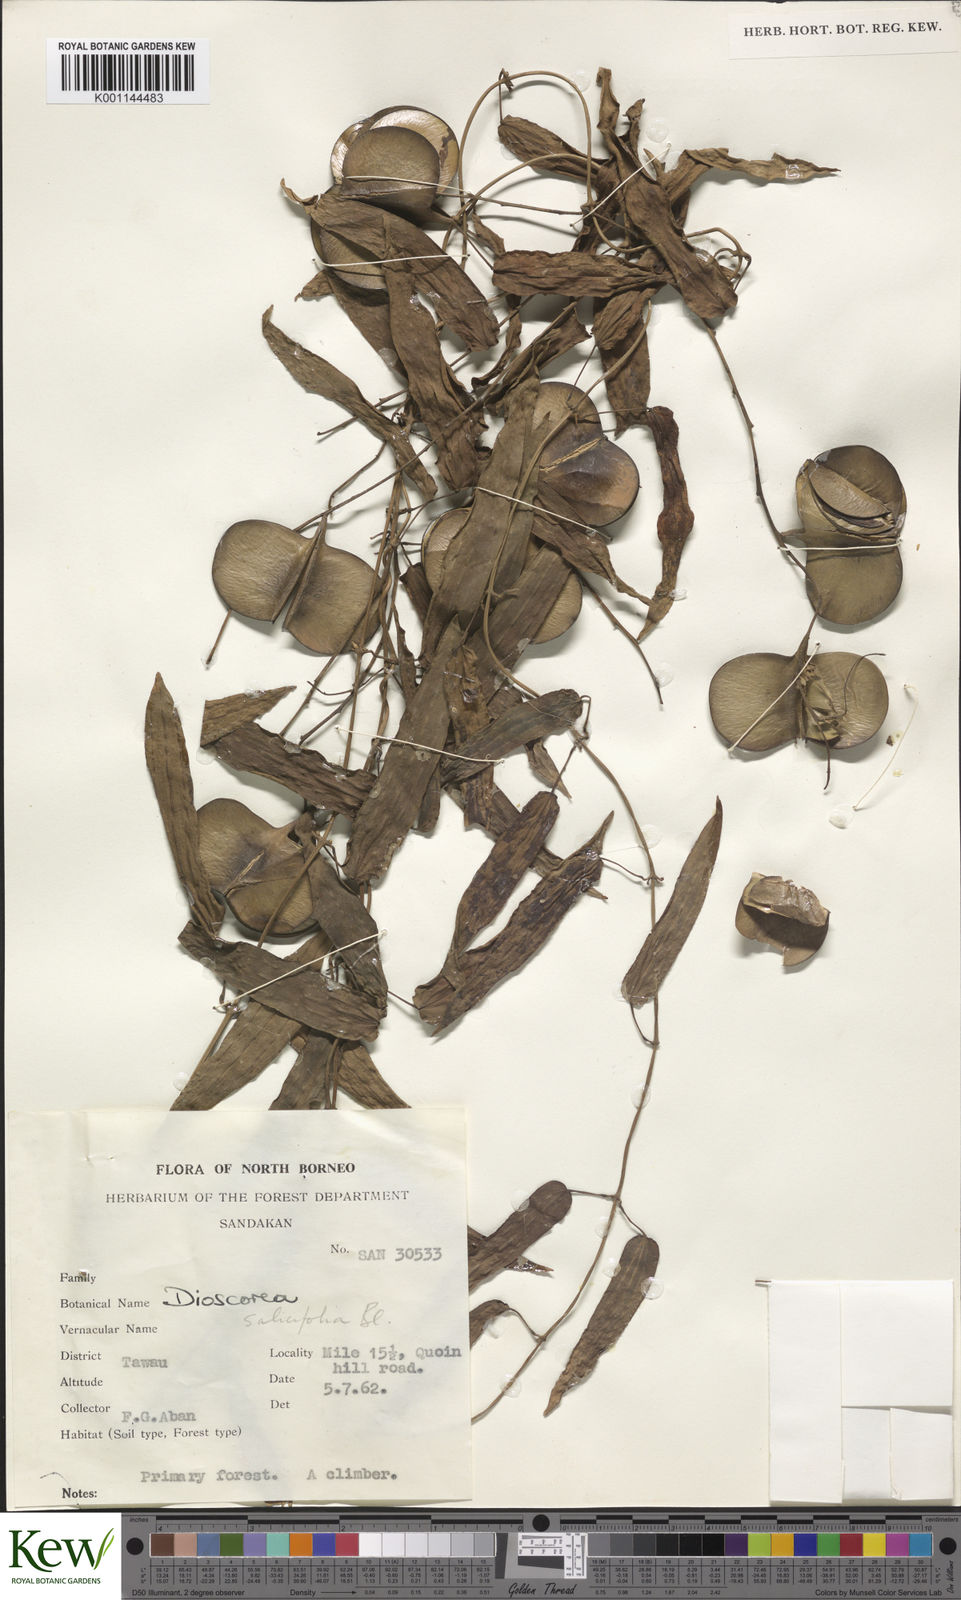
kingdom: Plantae
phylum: Tracheophyta
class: Liliopsida
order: Dioscoreales
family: Dioscoreaceae
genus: Dioscorea
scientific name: Dioscorea salicifolia
